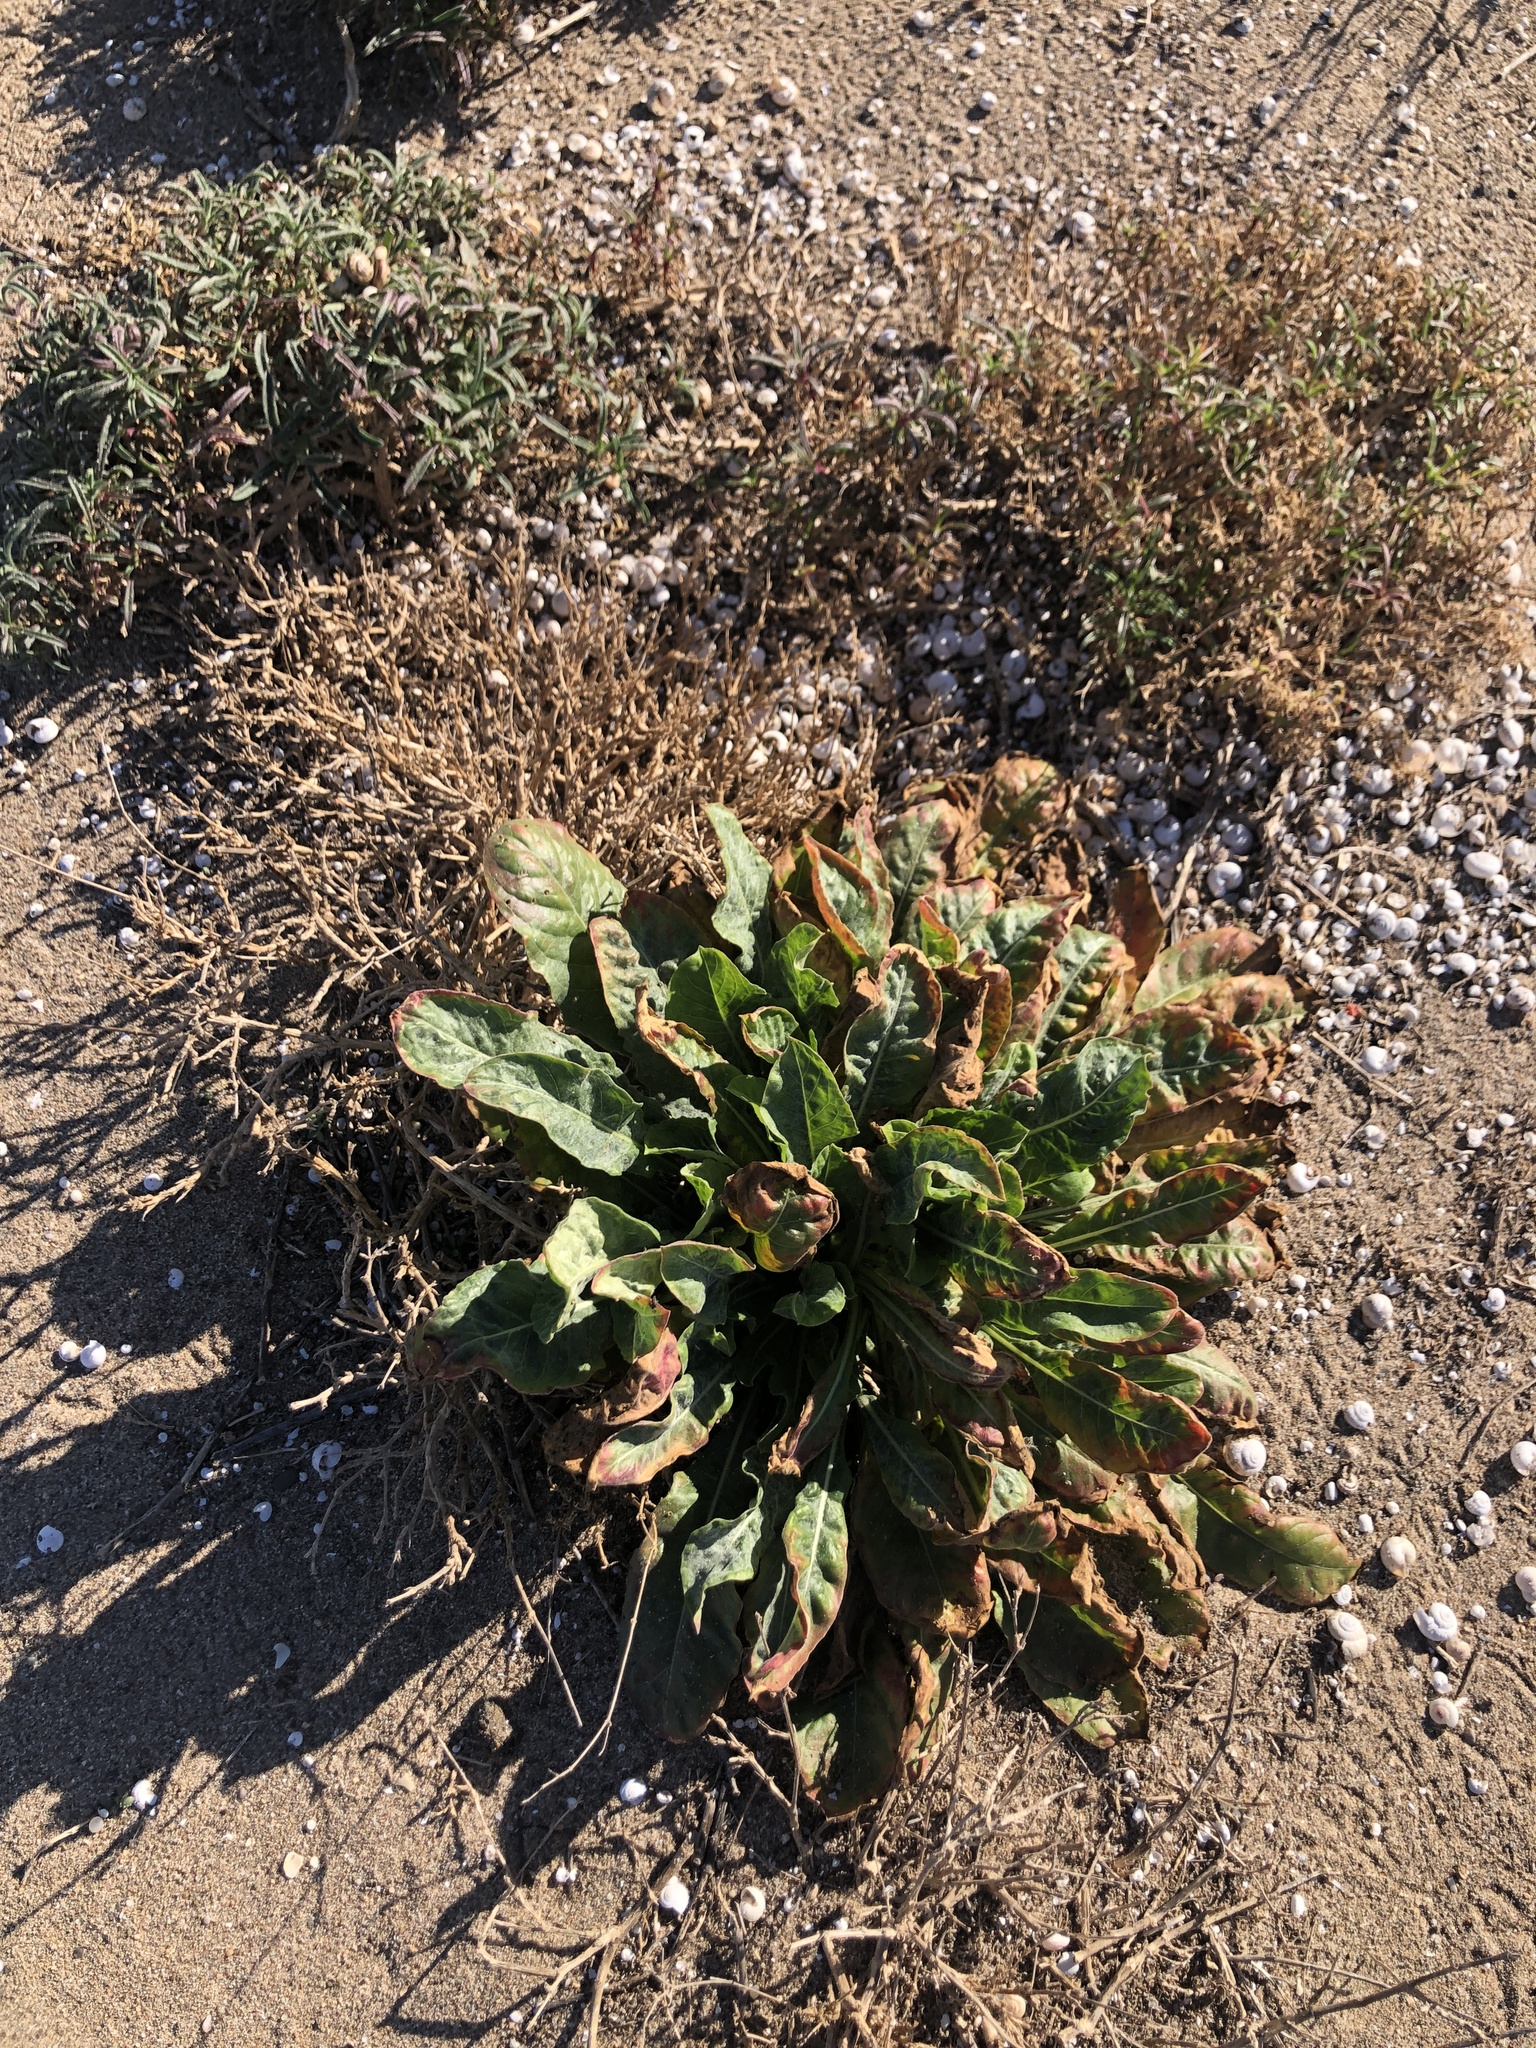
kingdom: Plantae
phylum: Tracheophyta
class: Magnoliopsida
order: Myrtales
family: Onagraceae
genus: Oenothera
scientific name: Oenothera glazioviana
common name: Large-flowered evening-primrose
